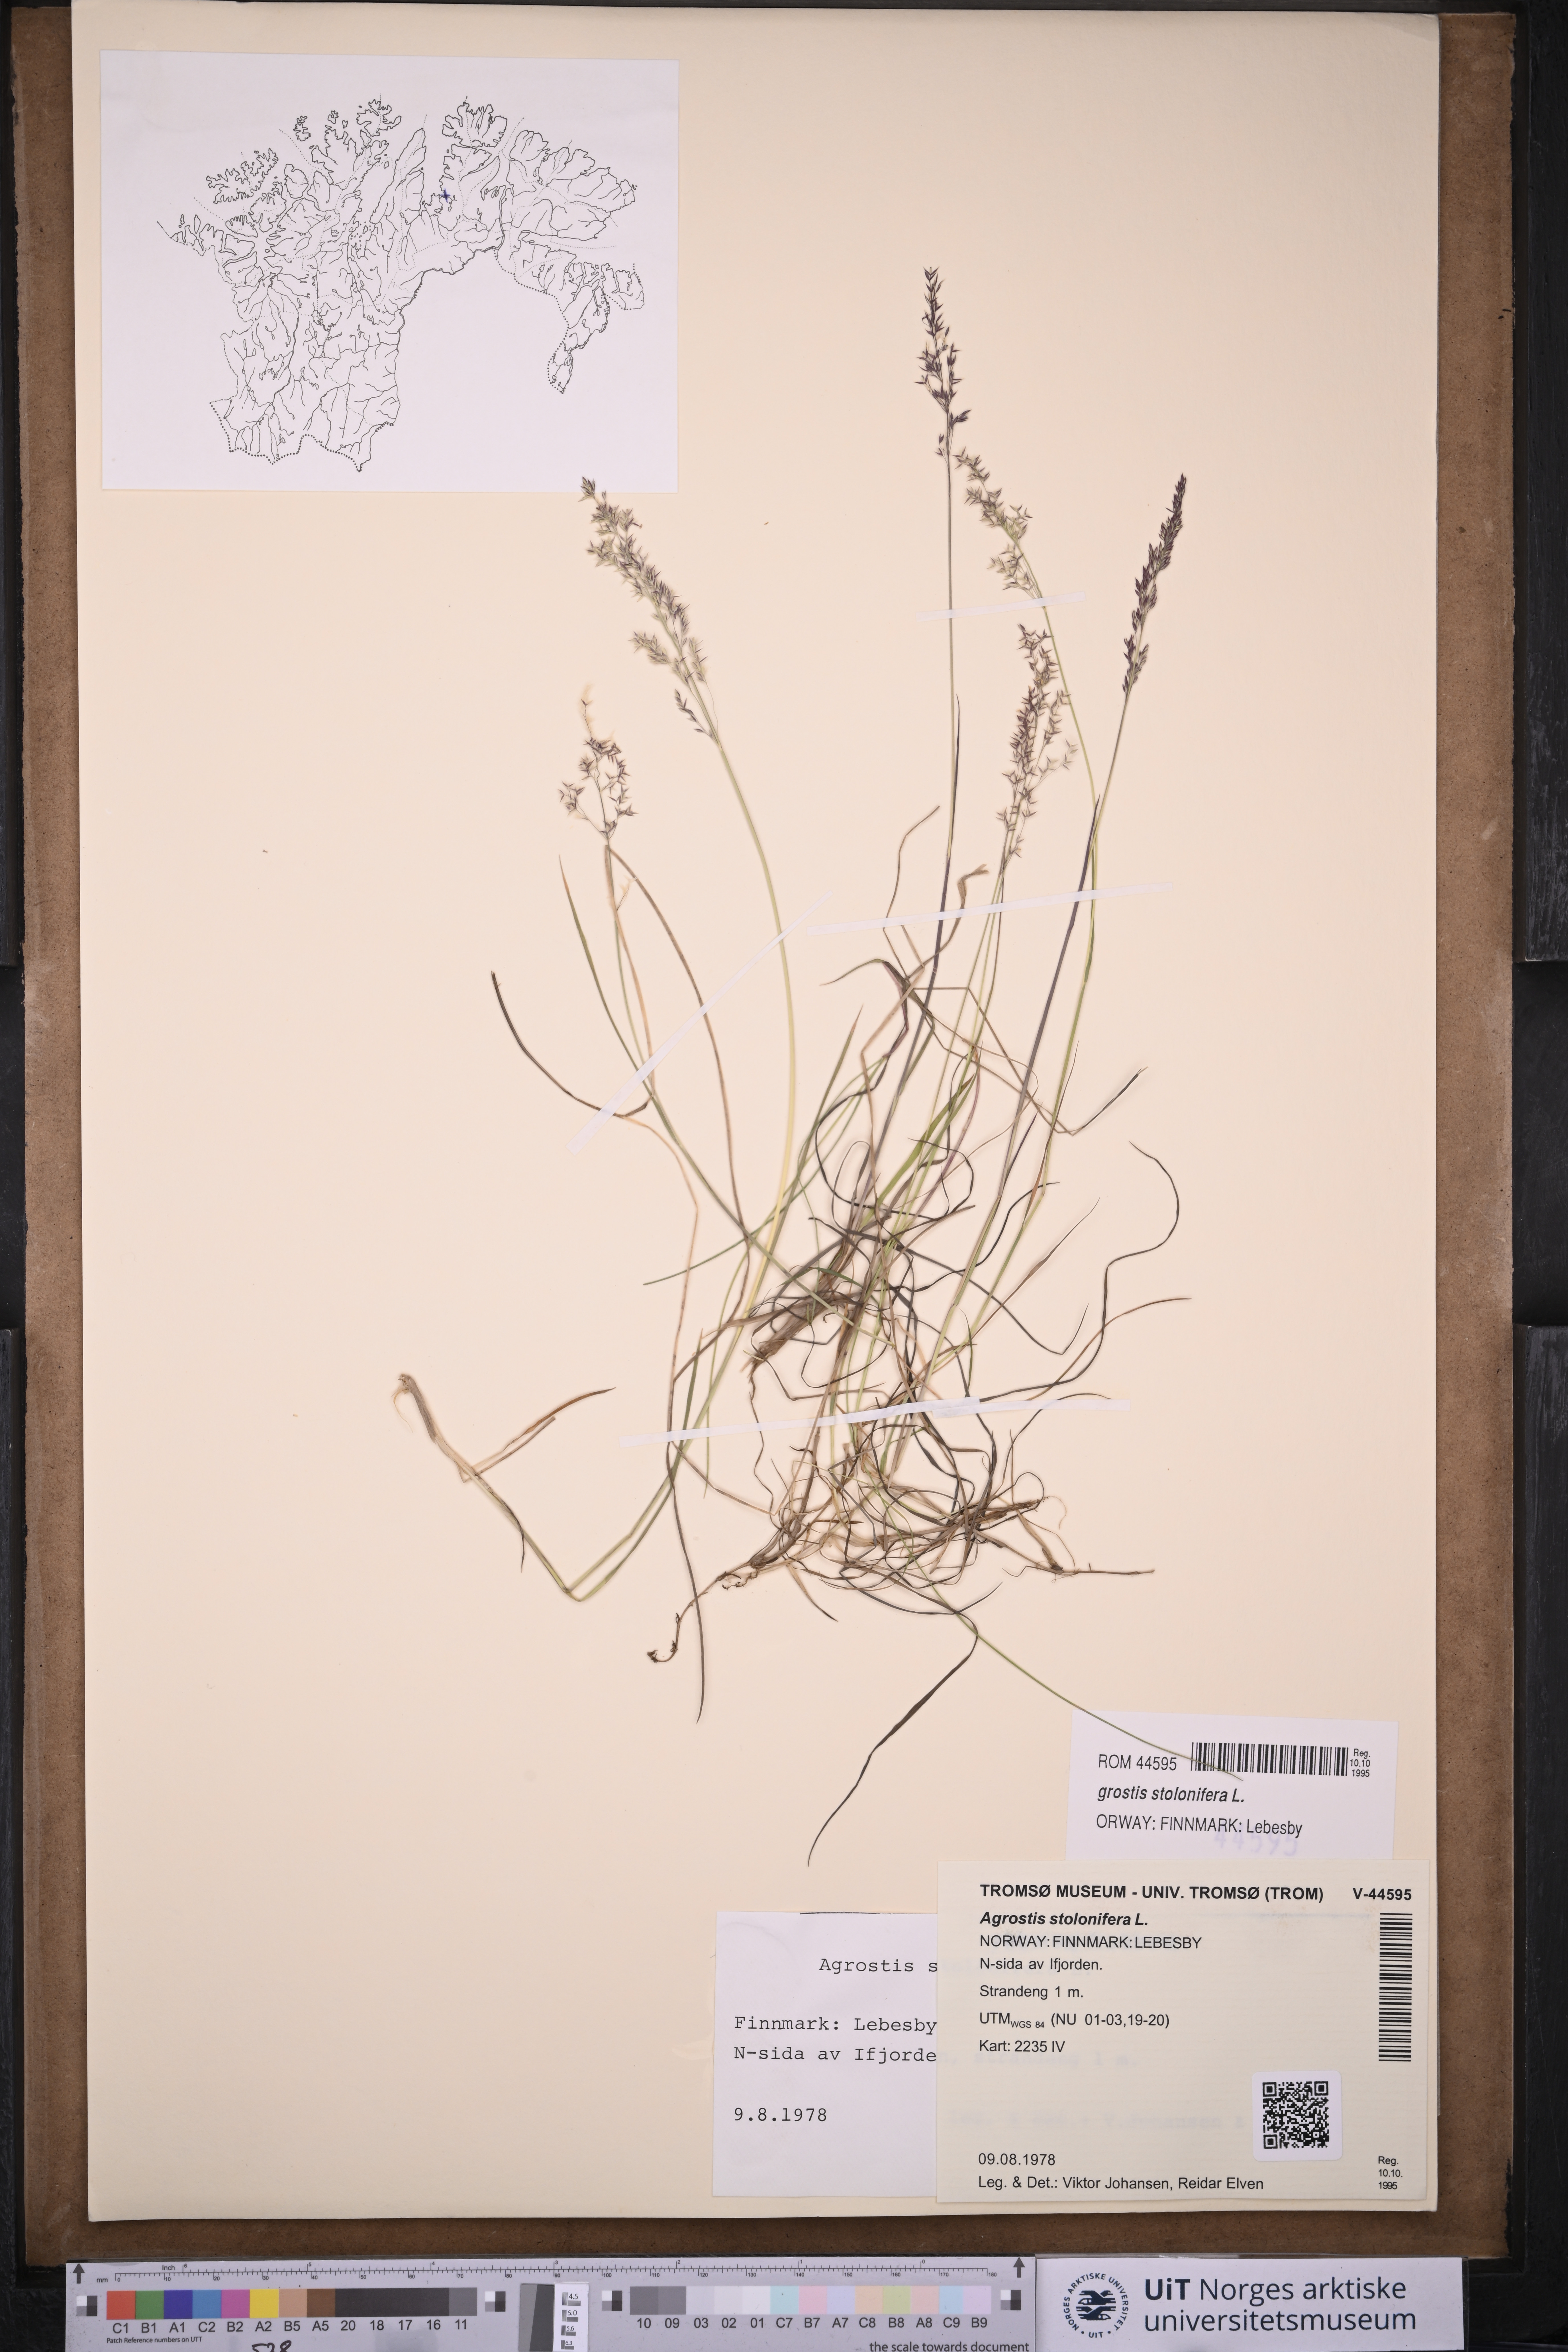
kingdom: Plantae
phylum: Tracheophyta
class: Liliopsida
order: Poales
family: Poaceae
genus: Agrostis
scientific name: Agrostis stolonifera
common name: Creeping bentgrass
